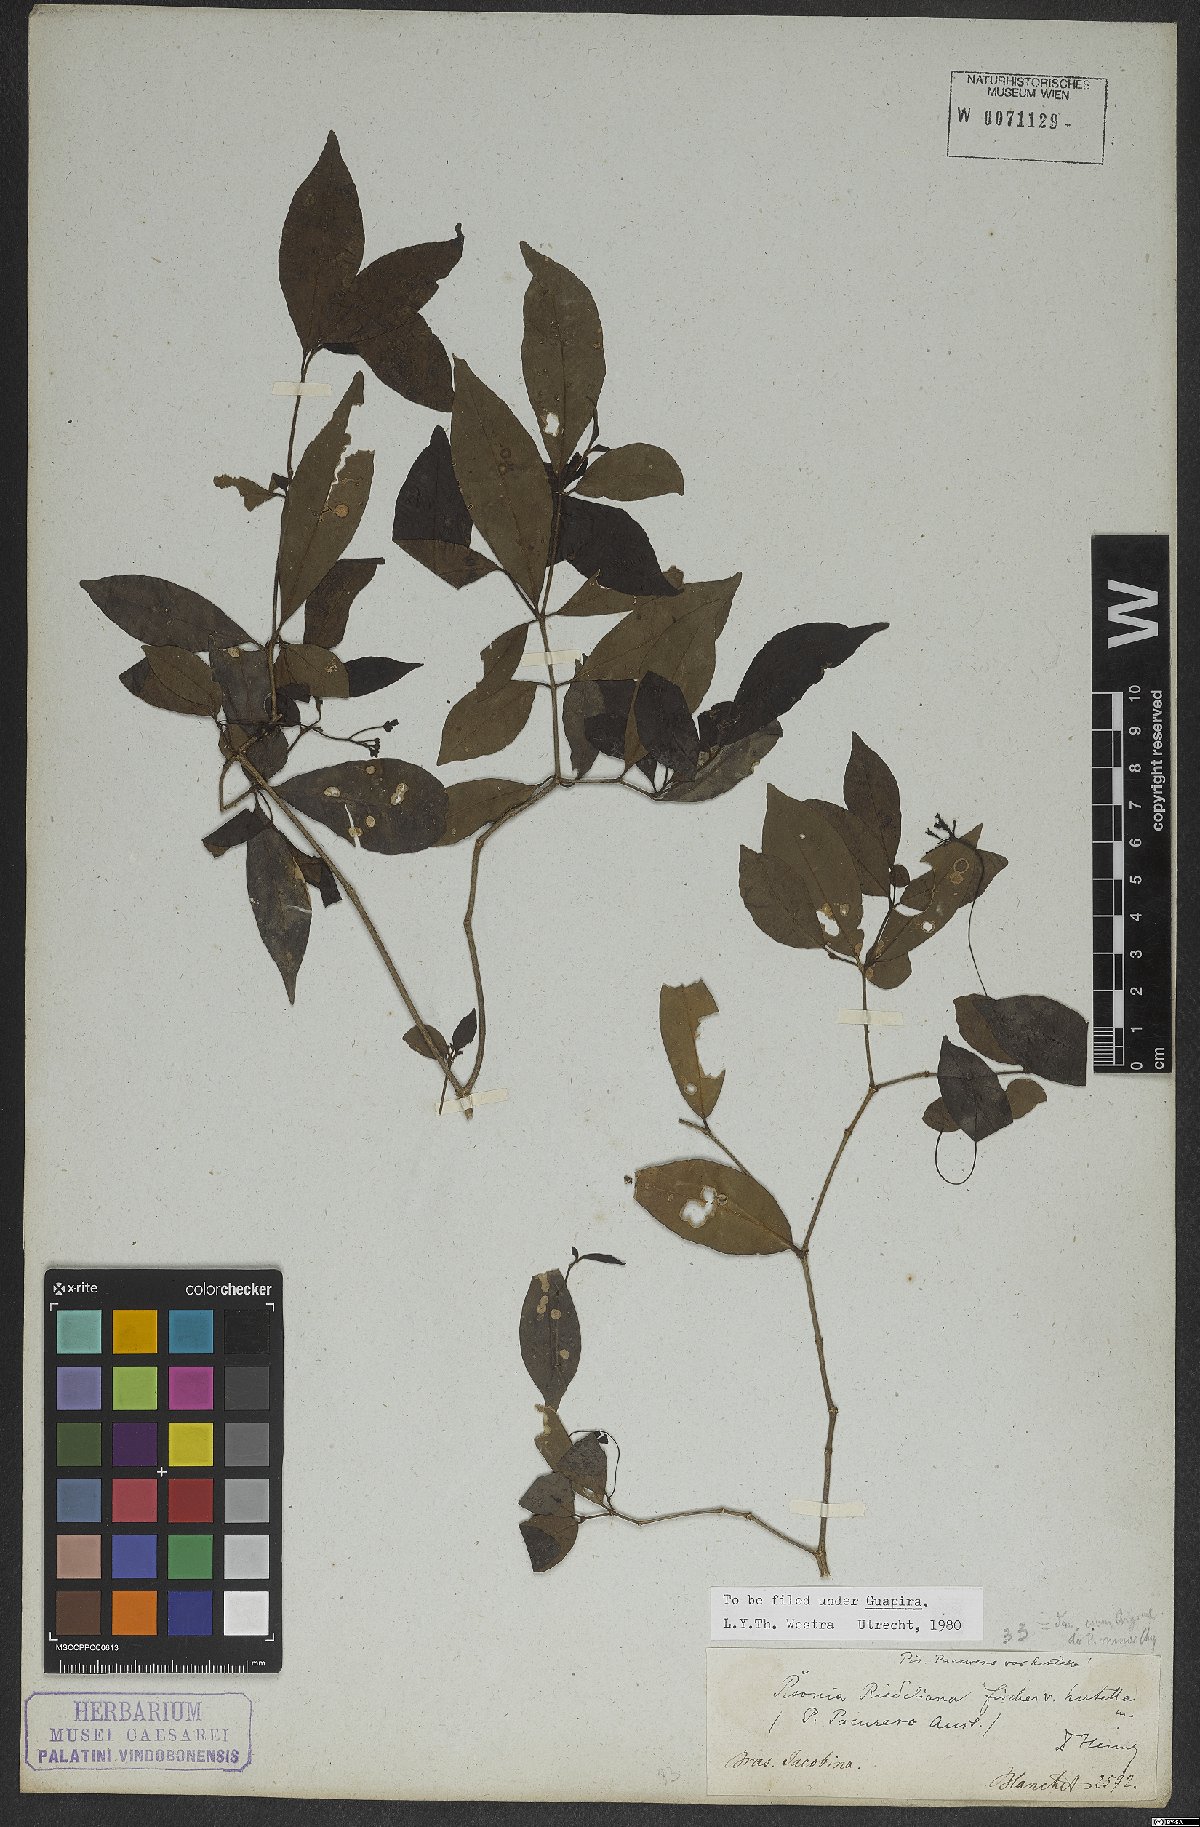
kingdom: Plantae
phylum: Tracheophyta
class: Magnoliopsida
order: Caryophyllales
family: Nyctaginaceae
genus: Guapira
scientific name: Guapira riedeliana
